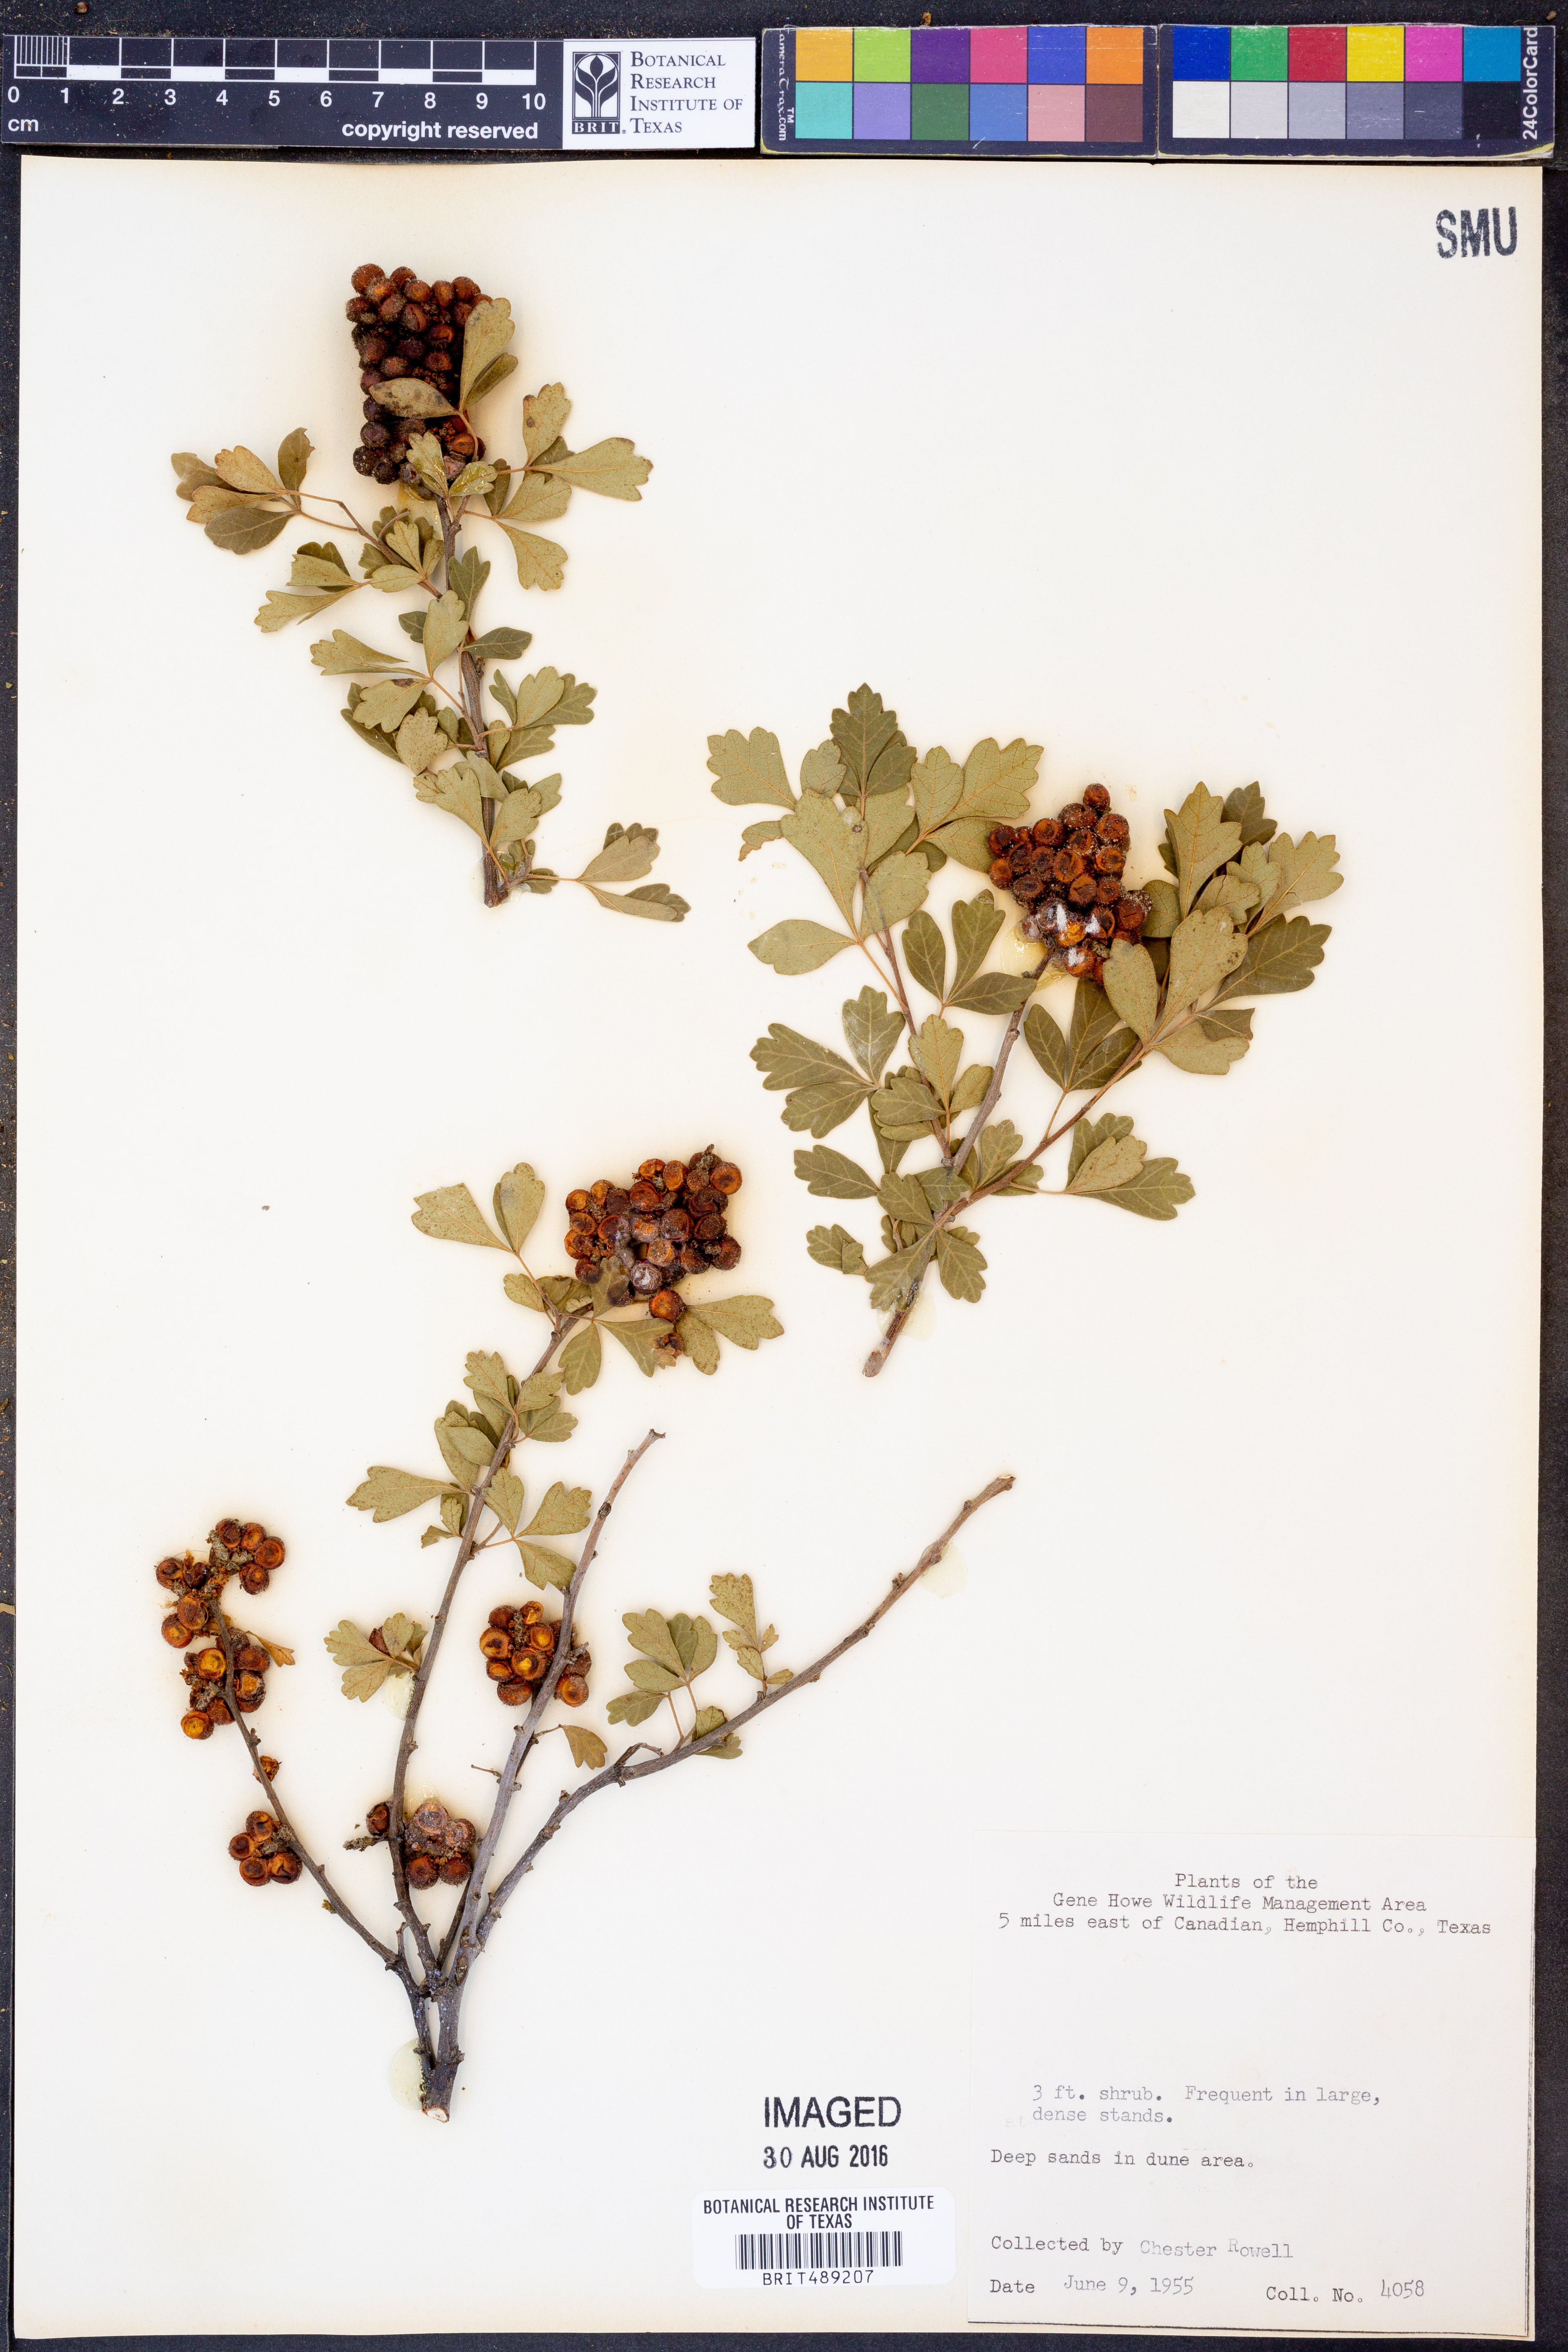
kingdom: Plantae
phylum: Tracheophyta
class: Magnoliopsida
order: Sapindales
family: Anacardiaceae
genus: Rhus
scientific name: Rhus trilobata
